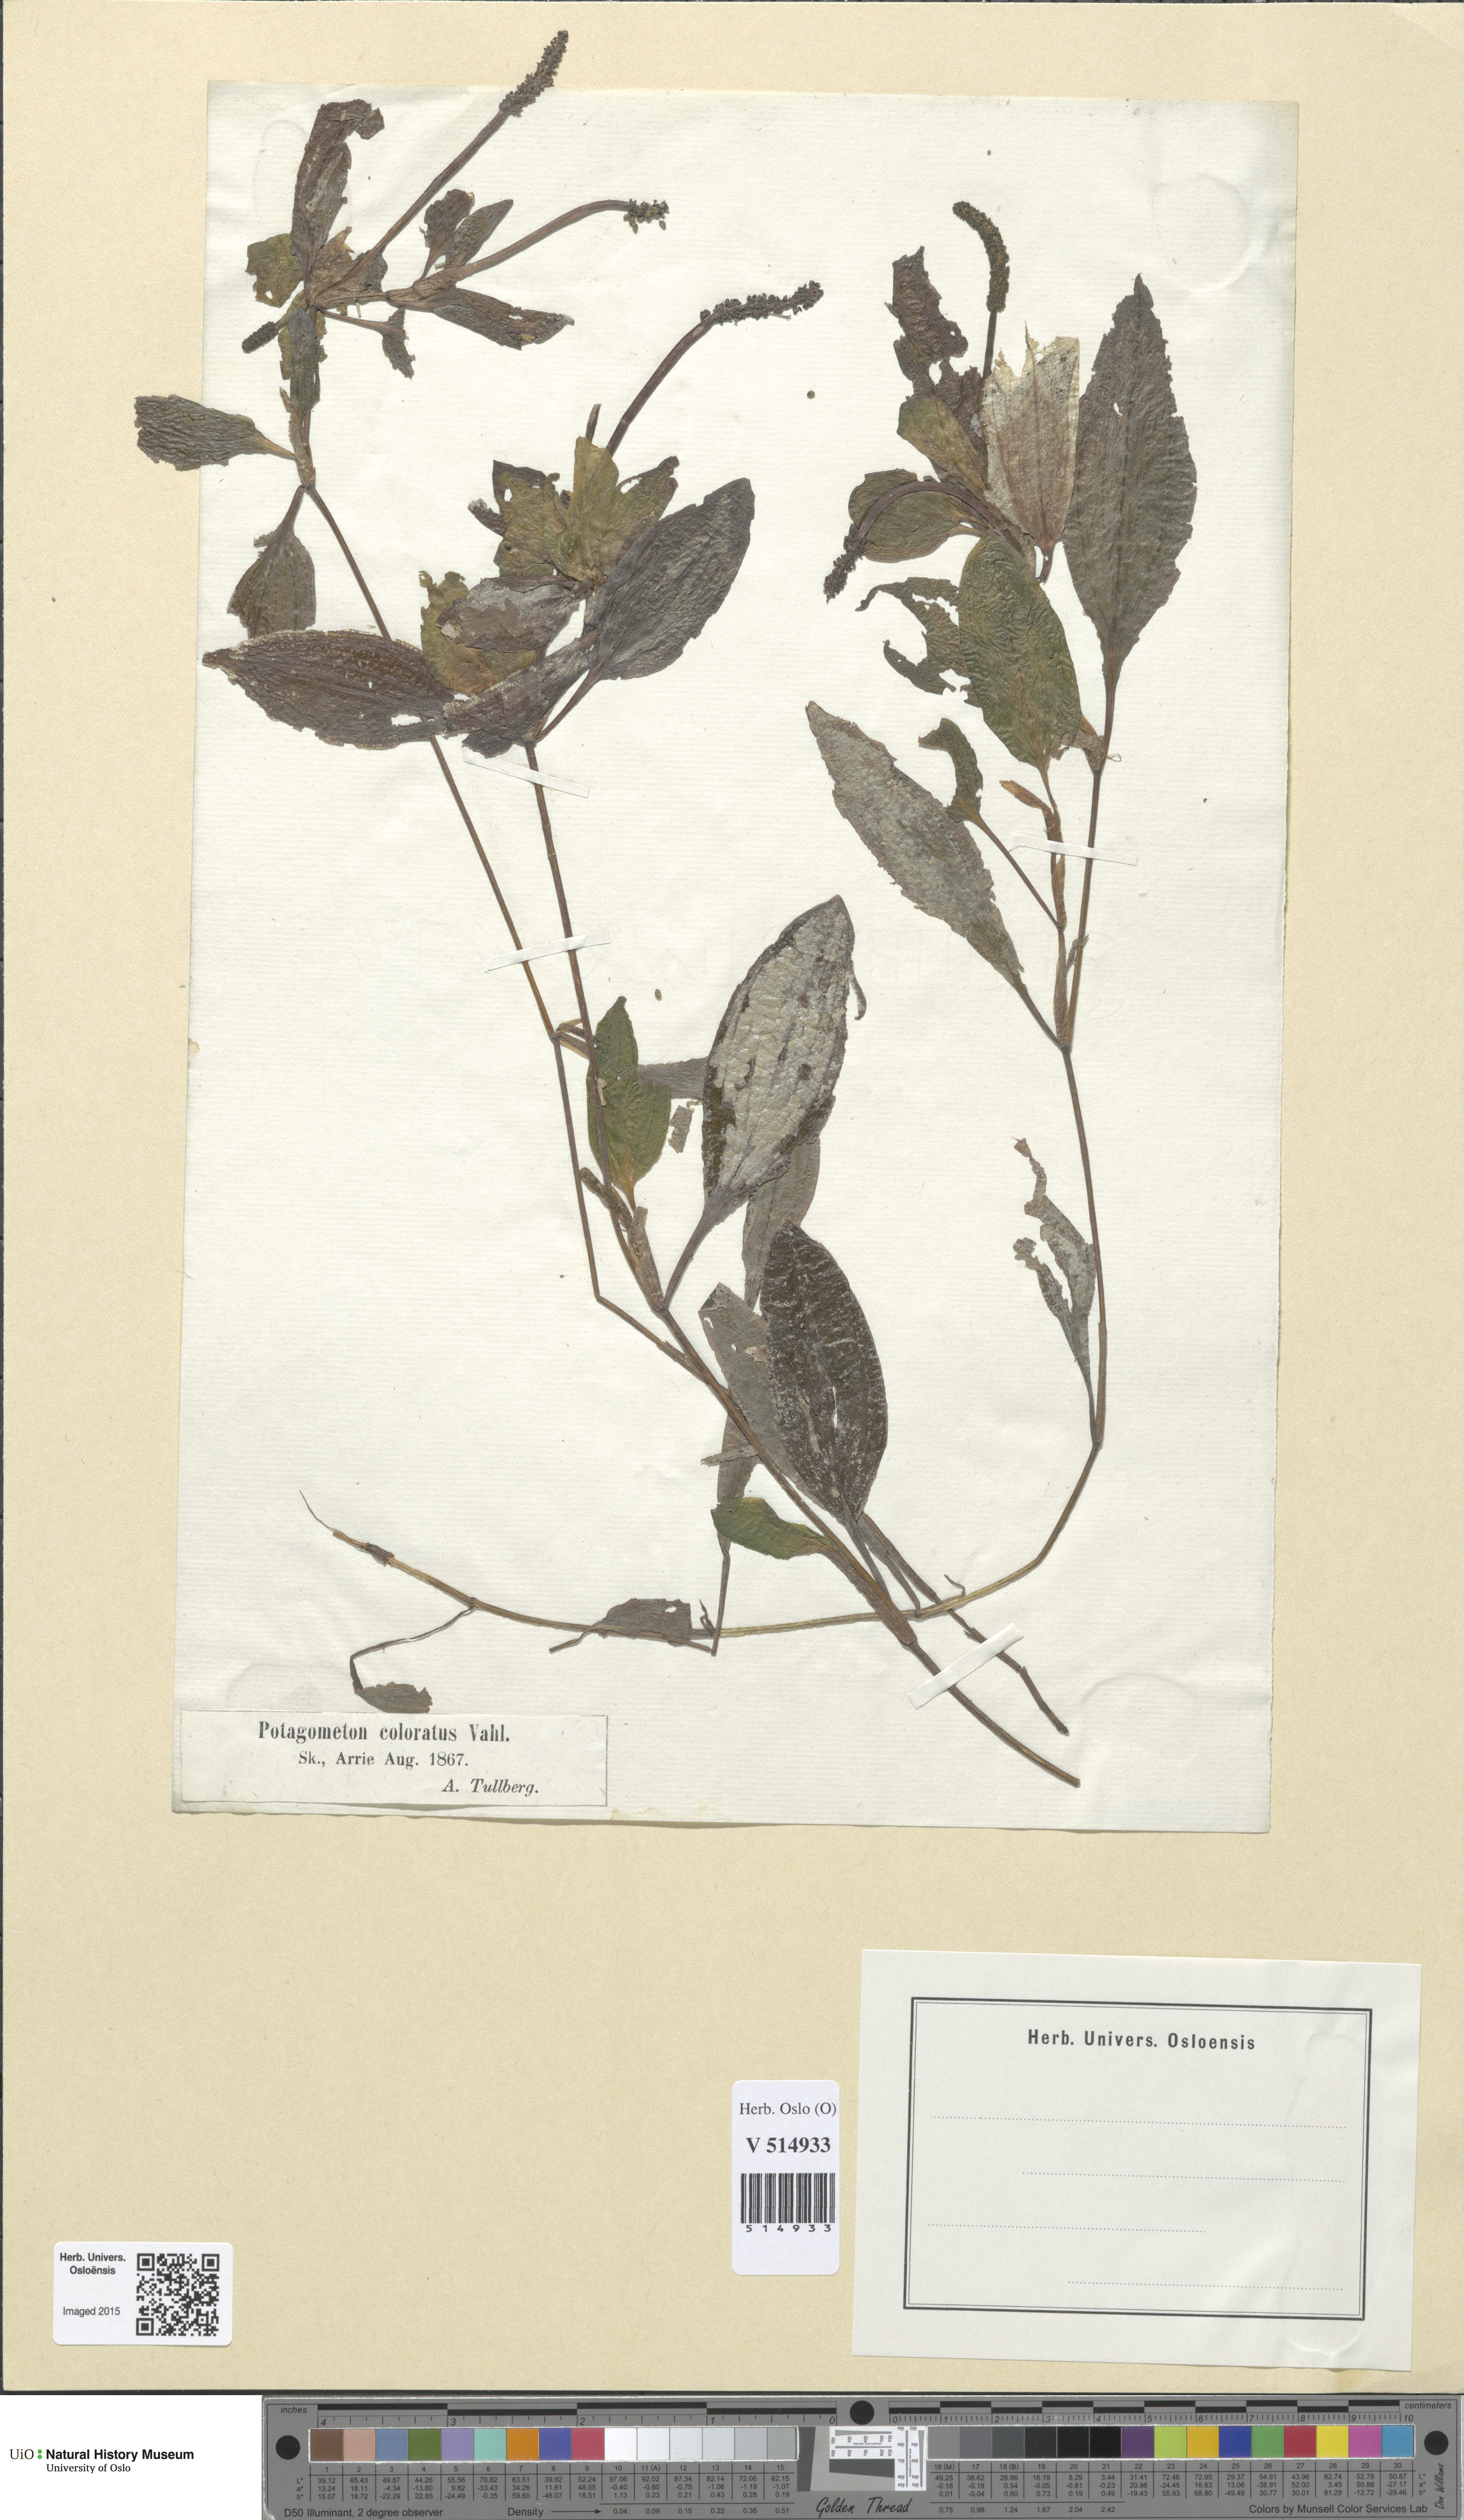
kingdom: Plantae
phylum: Tracheophyta
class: Liliopsida
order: Alismatales
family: Potamogetonaceae
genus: Potamogeton
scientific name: Potamogeton coloratus
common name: Fen pondweed
